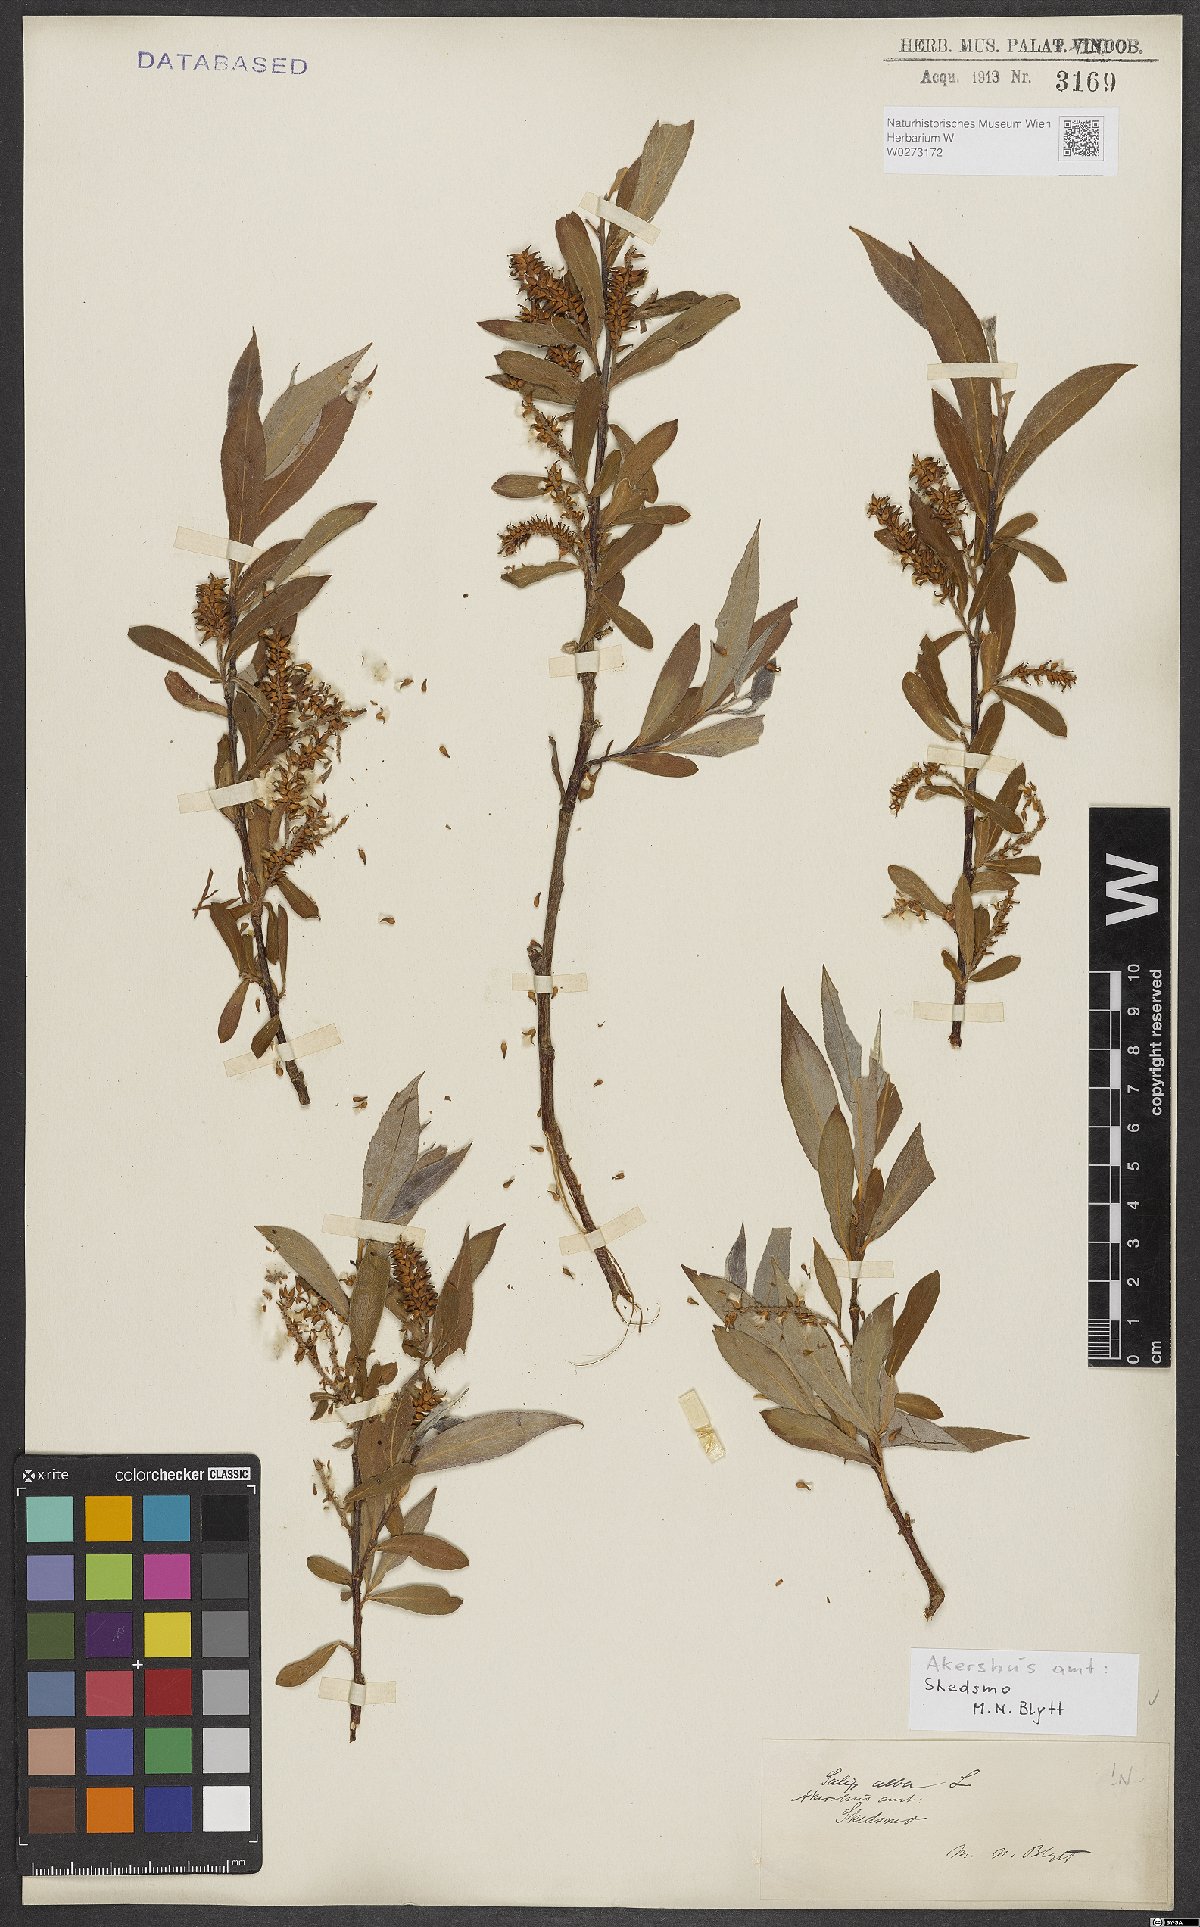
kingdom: Plantae
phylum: Tracheophyta
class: Magnoliopsida
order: Malpighiales
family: Salicaceae
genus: Salix
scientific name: Salix alba
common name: White willow
